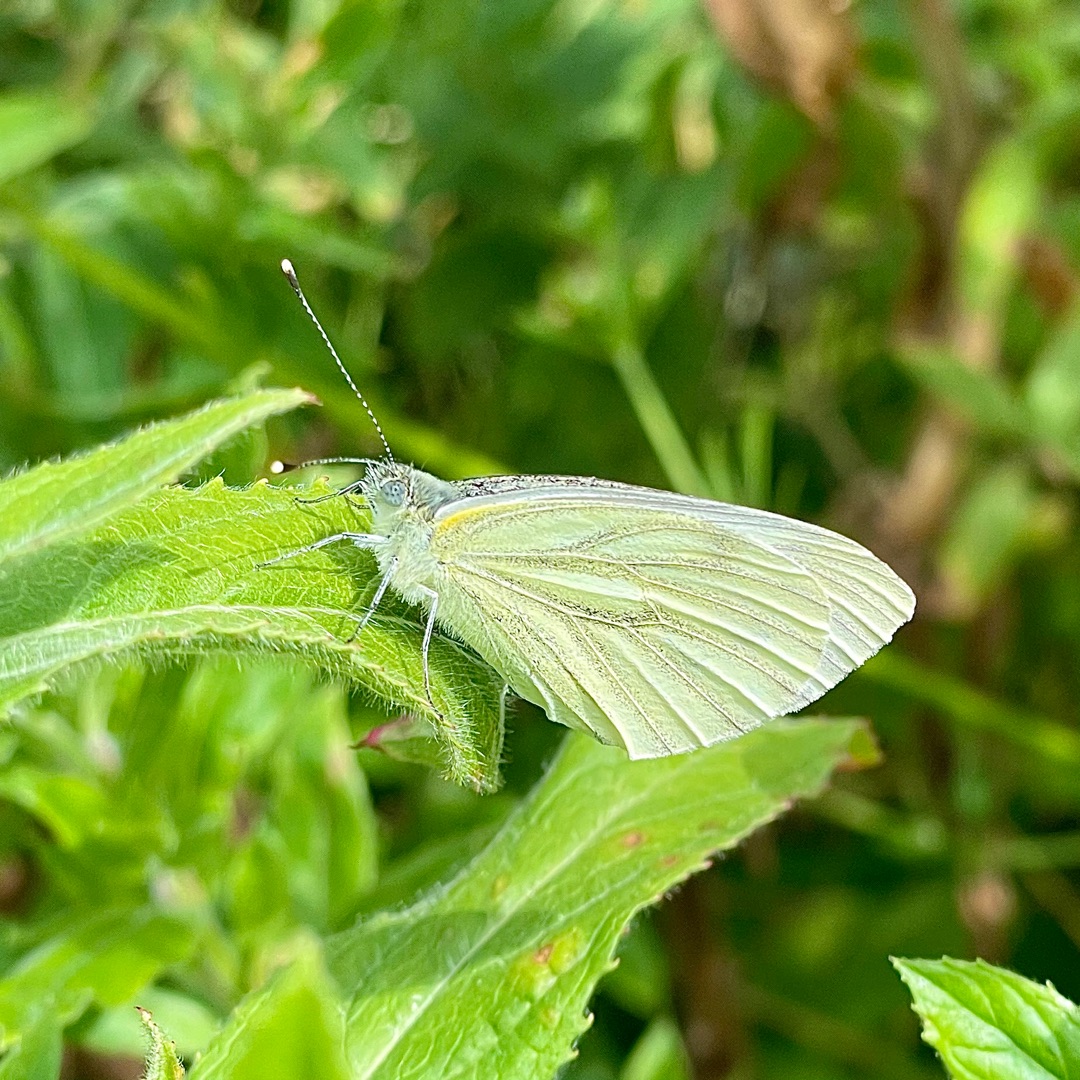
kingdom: Animalia
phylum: Arthropoda
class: Insecta
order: Lepidoptera
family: Pieridae
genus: Pieris
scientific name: Pieris napi
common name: Grønåret kålsommerfugl
